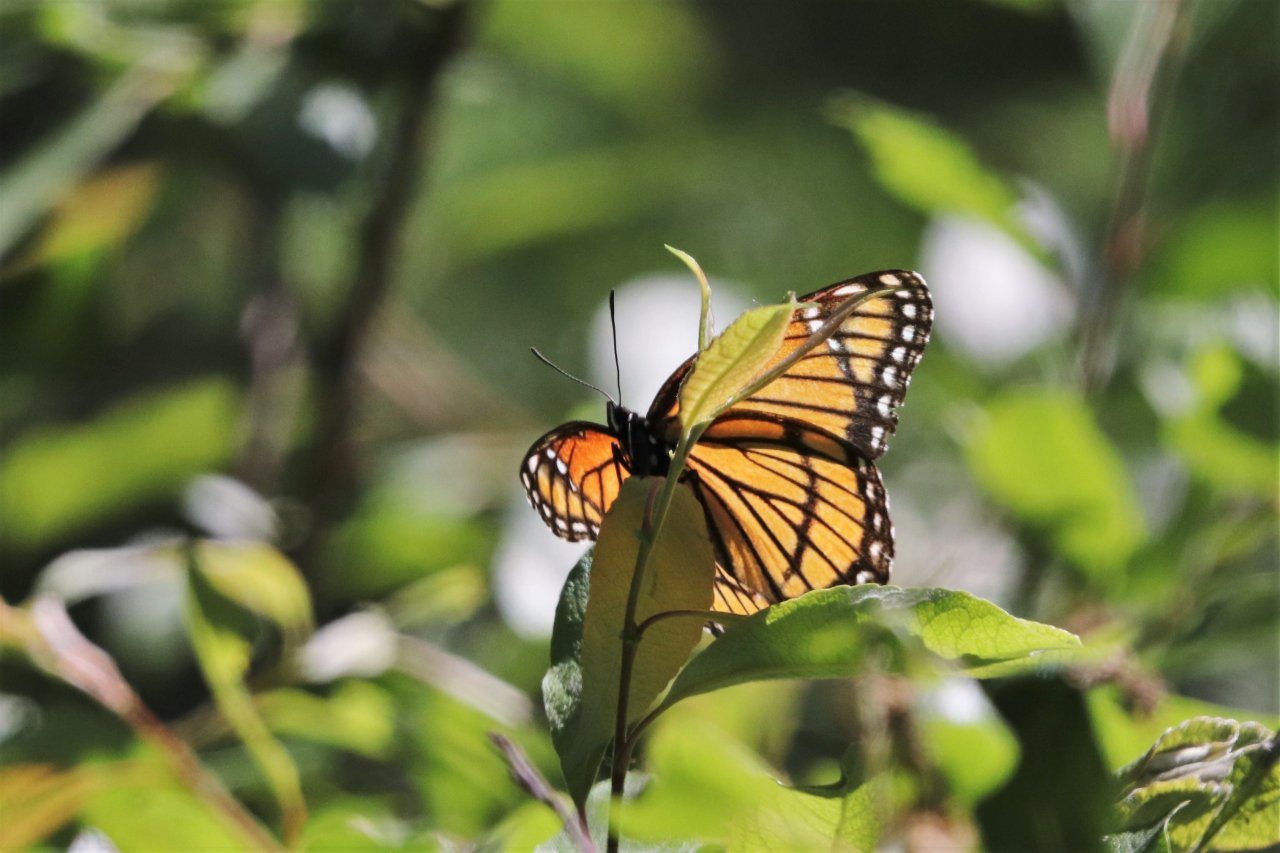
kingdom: Animalia
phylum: Arthropoda
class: Insecta
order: Lepidoptera
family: Nymphalidae
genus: Limenitis
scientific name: Limenitis archippus
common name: Viceroy
